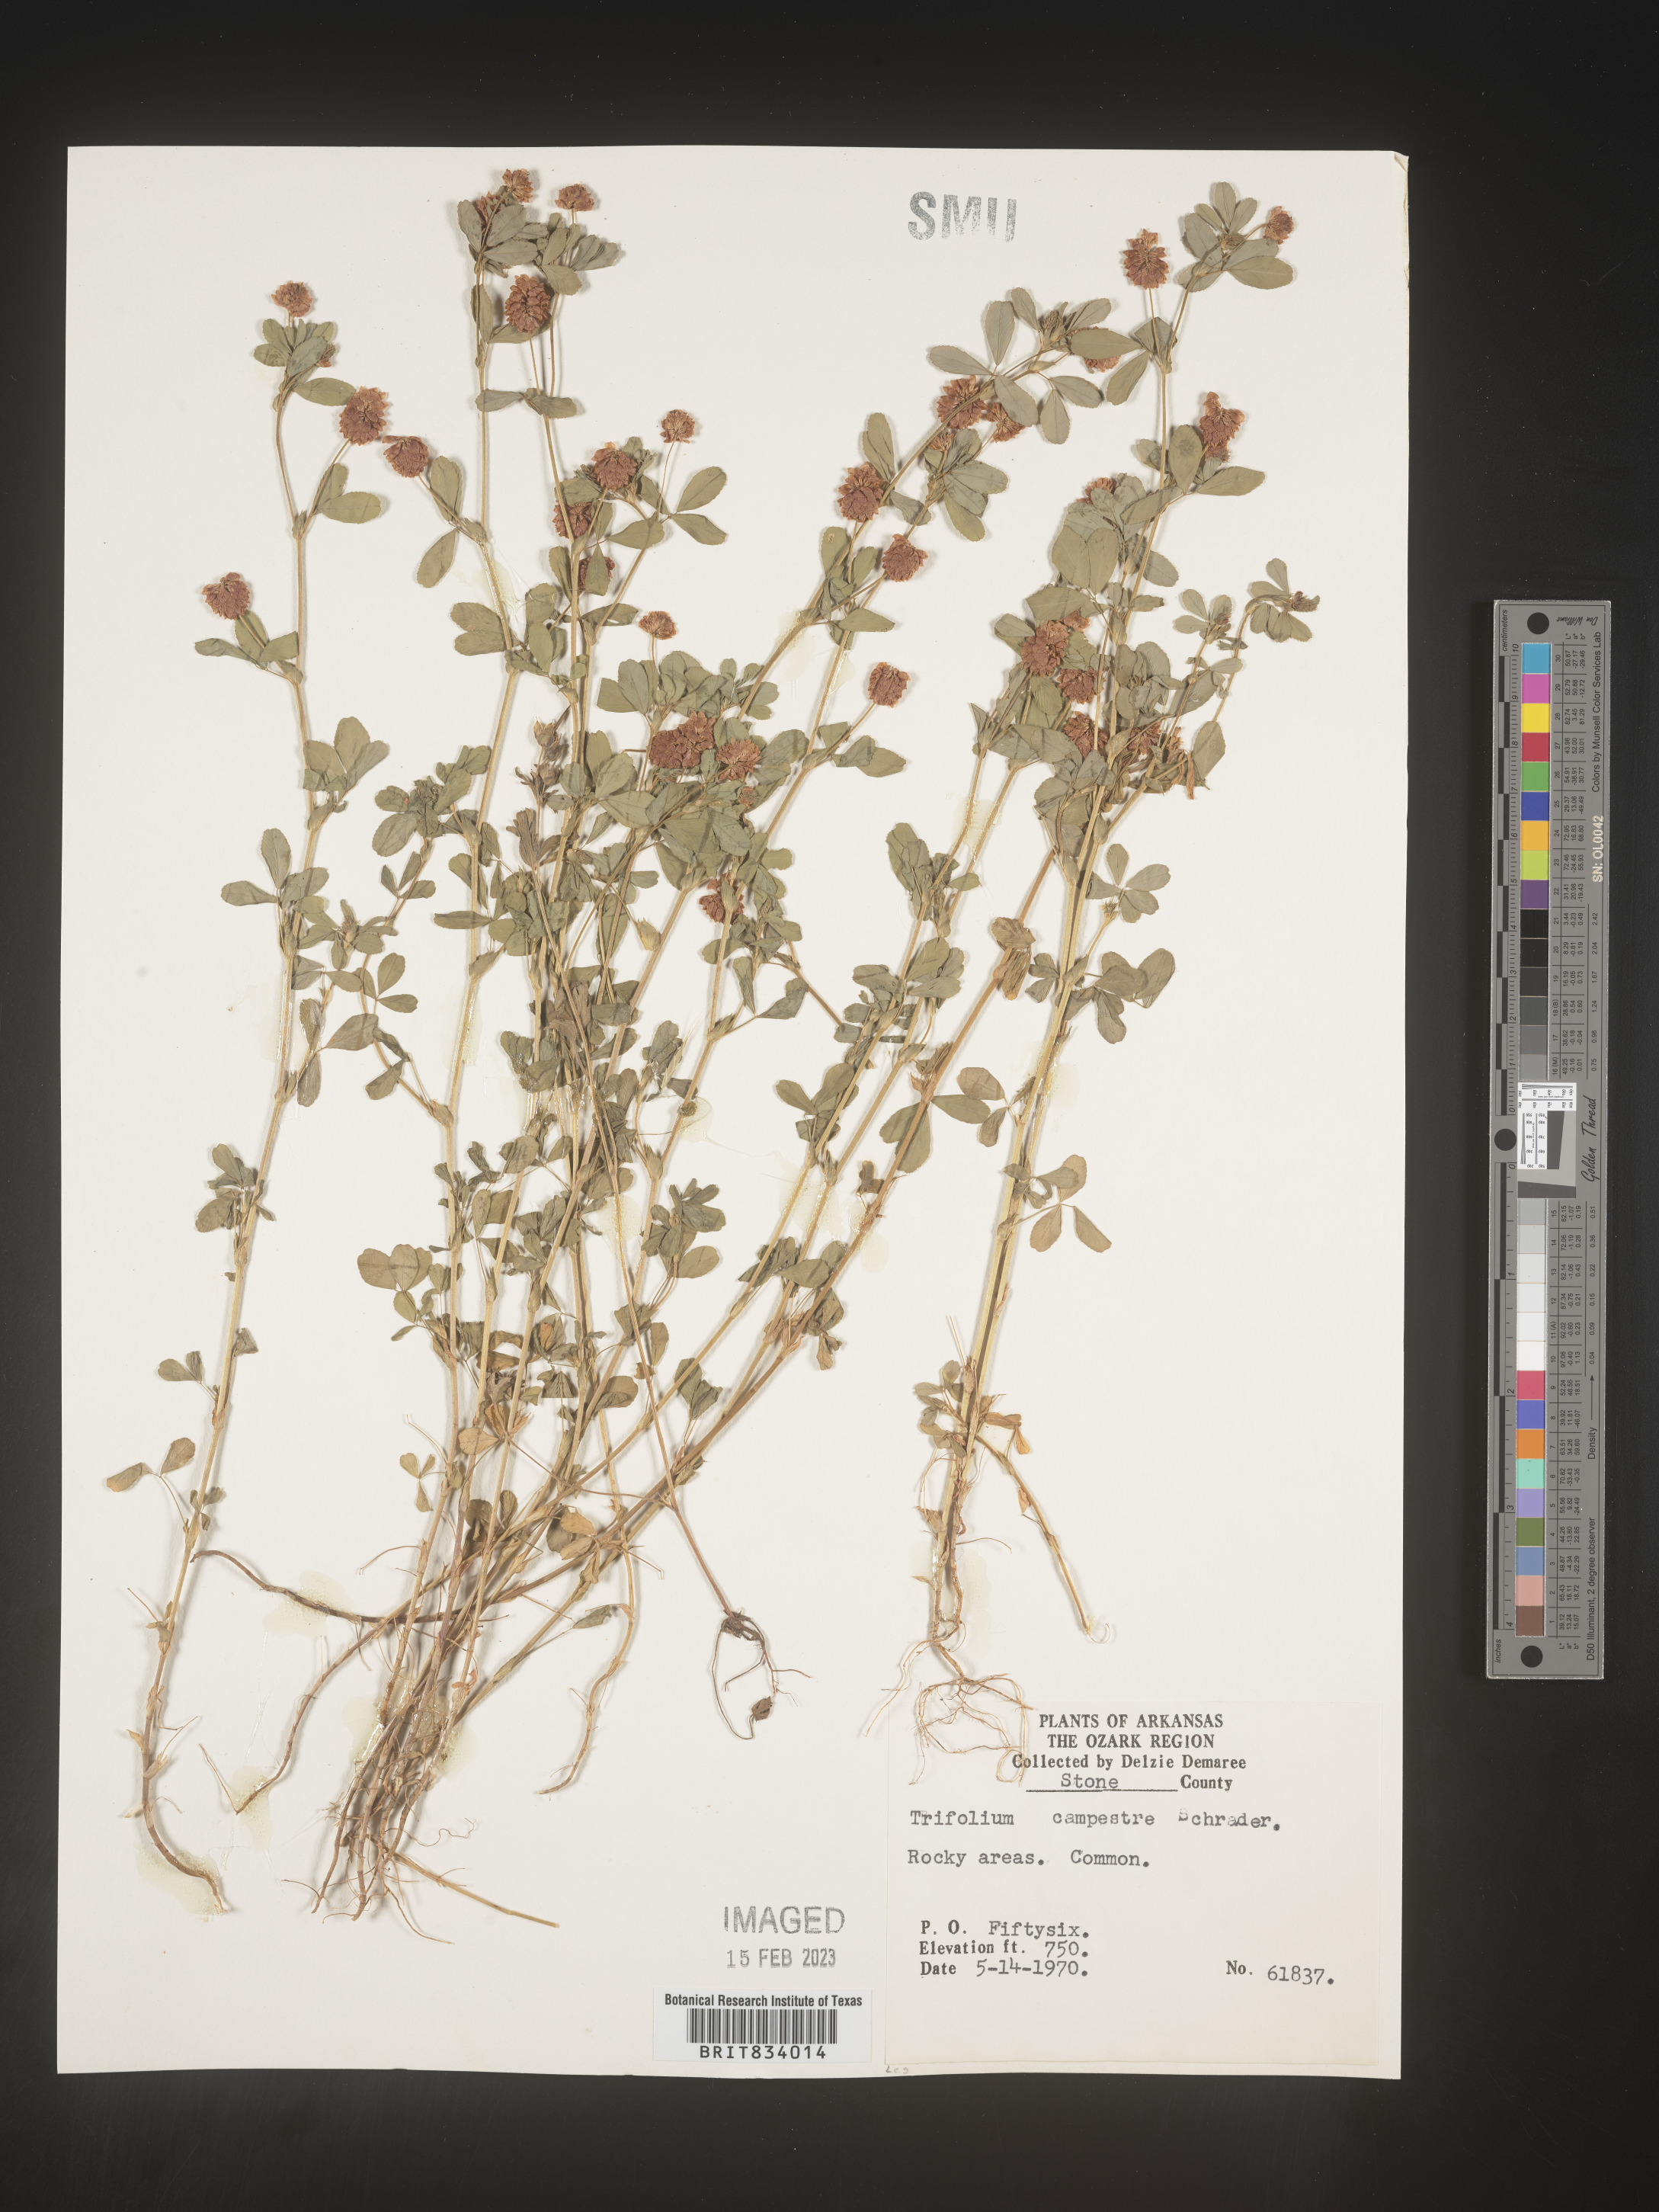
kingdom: Plantae
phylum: Tracheophyta
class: Magnoliopsida
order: Fabales
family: Fabaceae
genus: Trifolium
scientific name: Trifolium campestre
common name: Field clover
